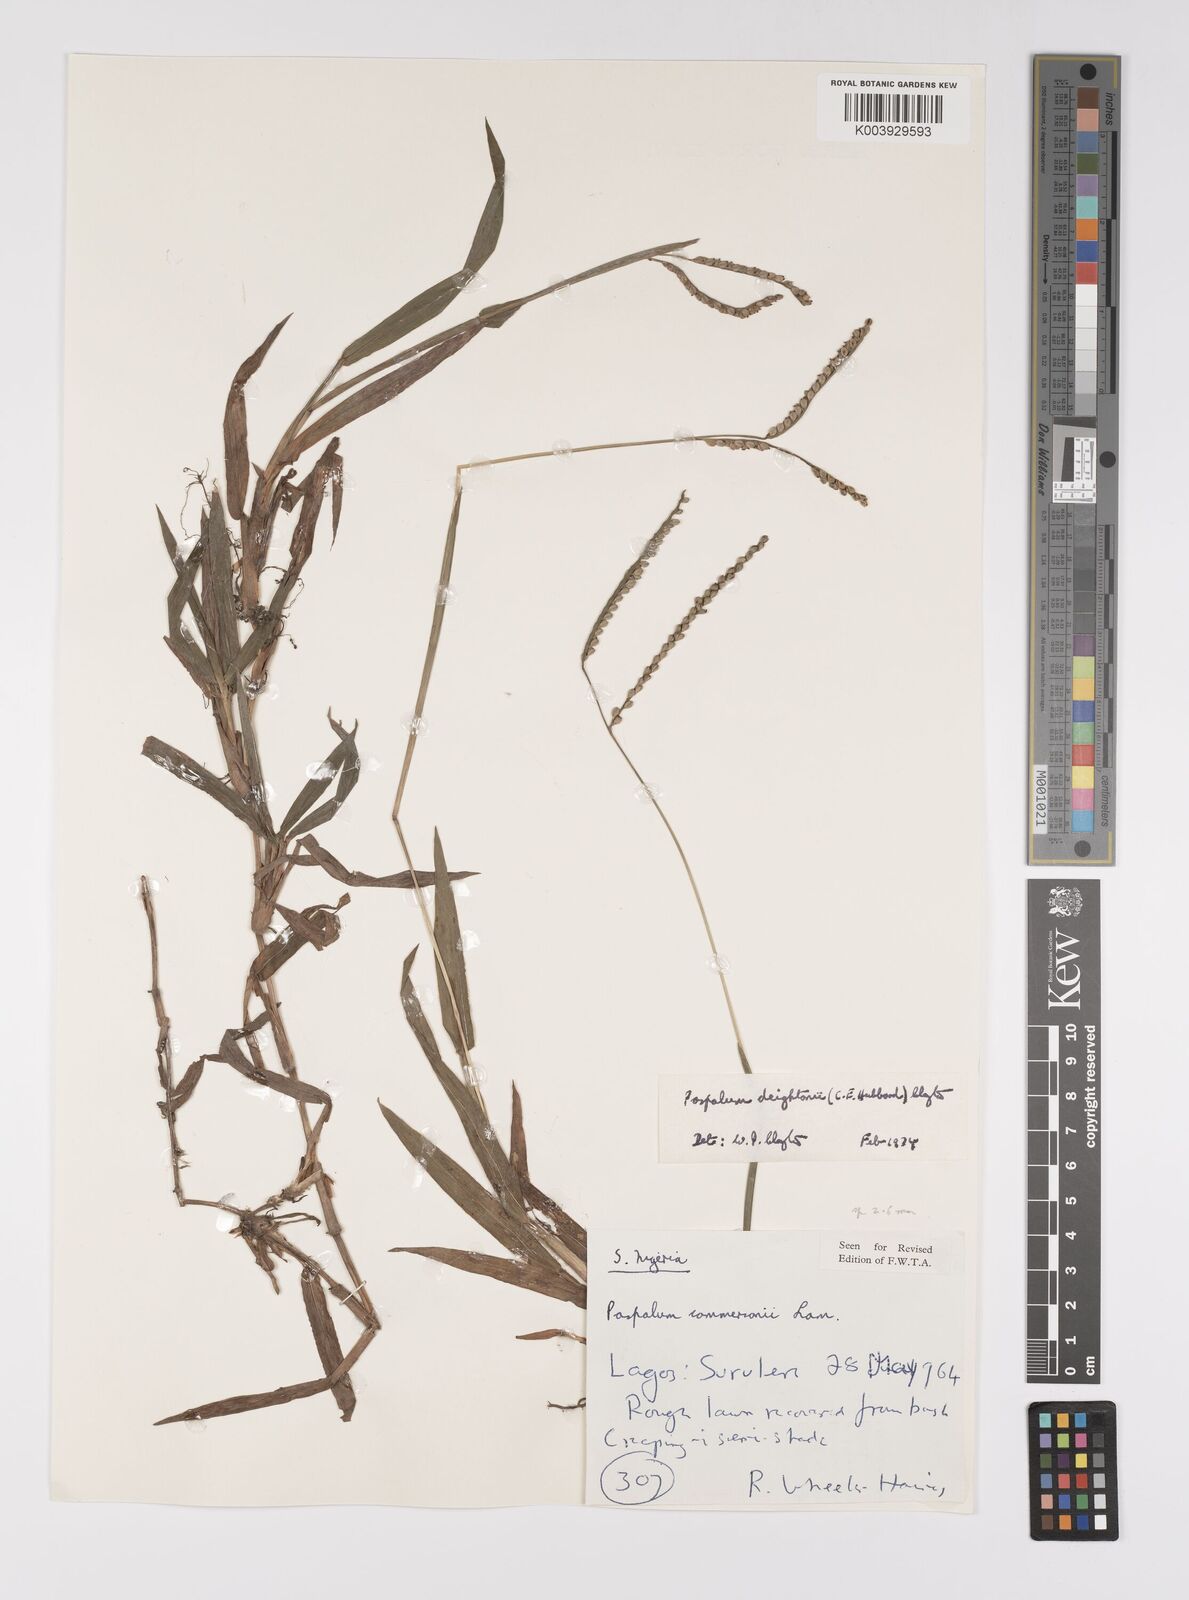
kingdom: Plantae
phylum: Tracheophyta
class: Liliopsida
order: Poales
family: Poaceae
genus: Paspalum
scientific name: Paspalum scrobiculatum
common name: Kodo millet
